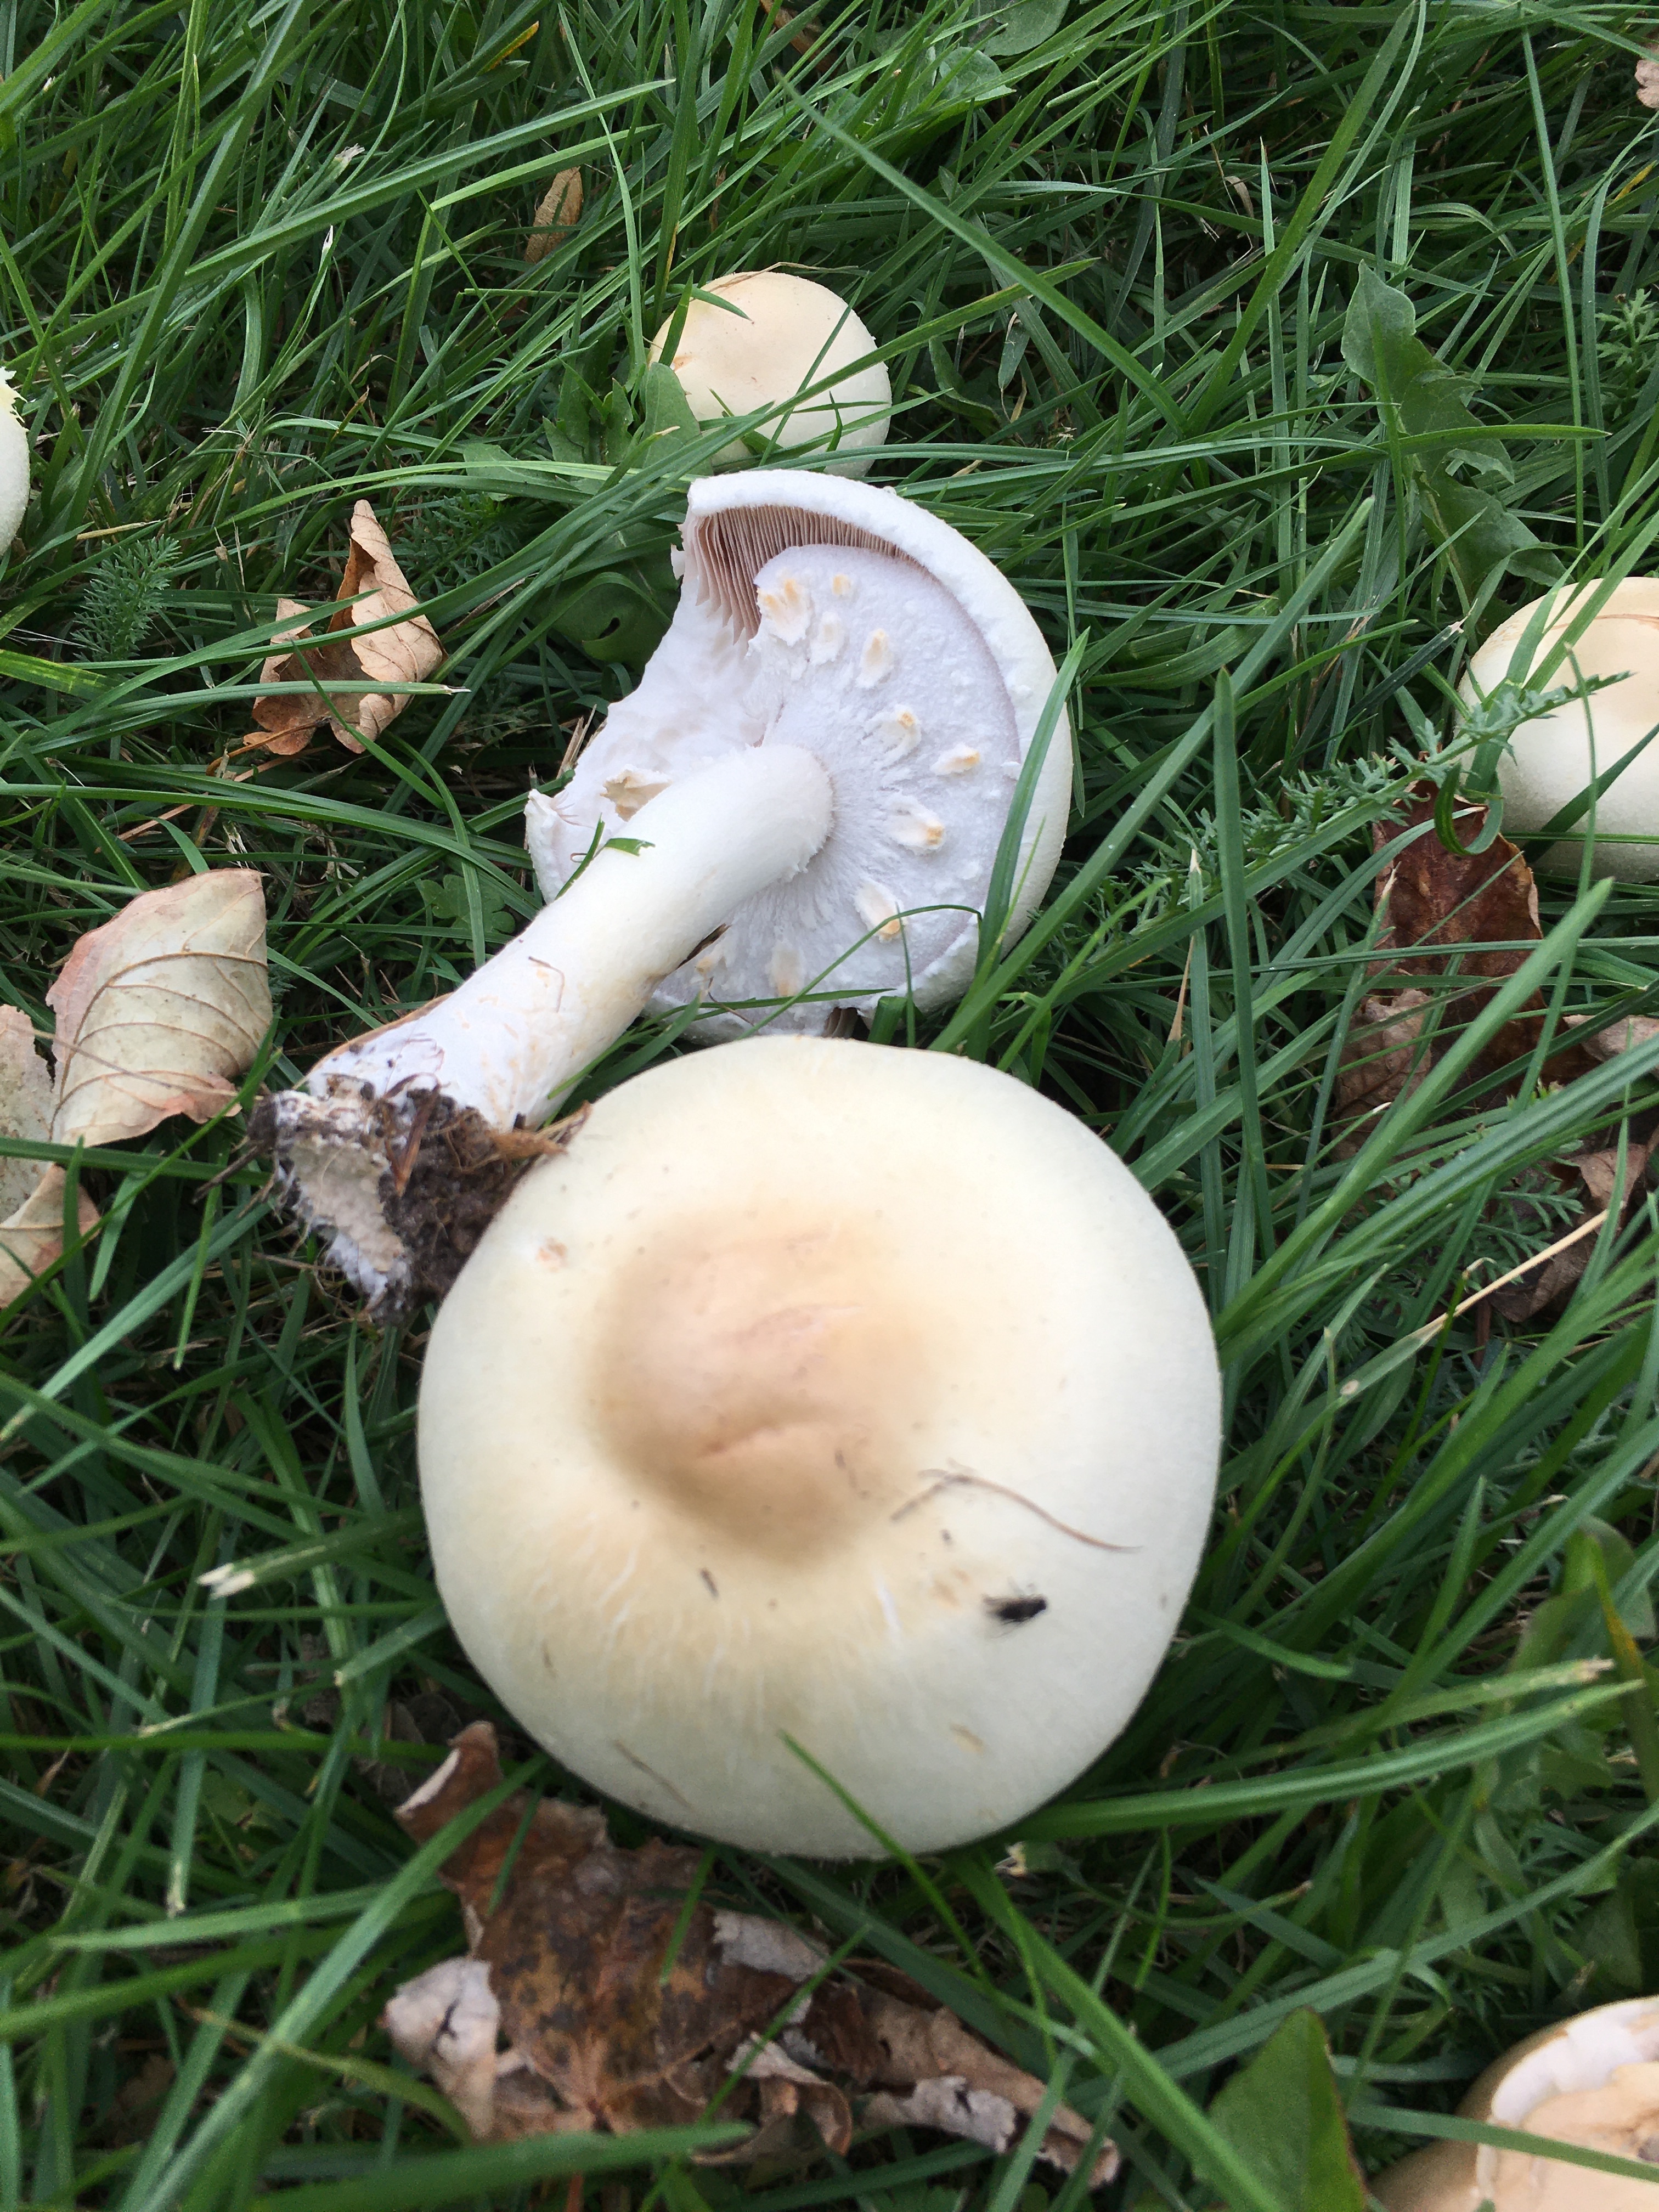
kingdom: Fungi
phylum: Basidiomycota
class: Agaricomycetes
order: Agaricales
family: Agaricaceae
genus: Agaricus
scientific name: Agaricus arvensis
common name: ager-champignon
